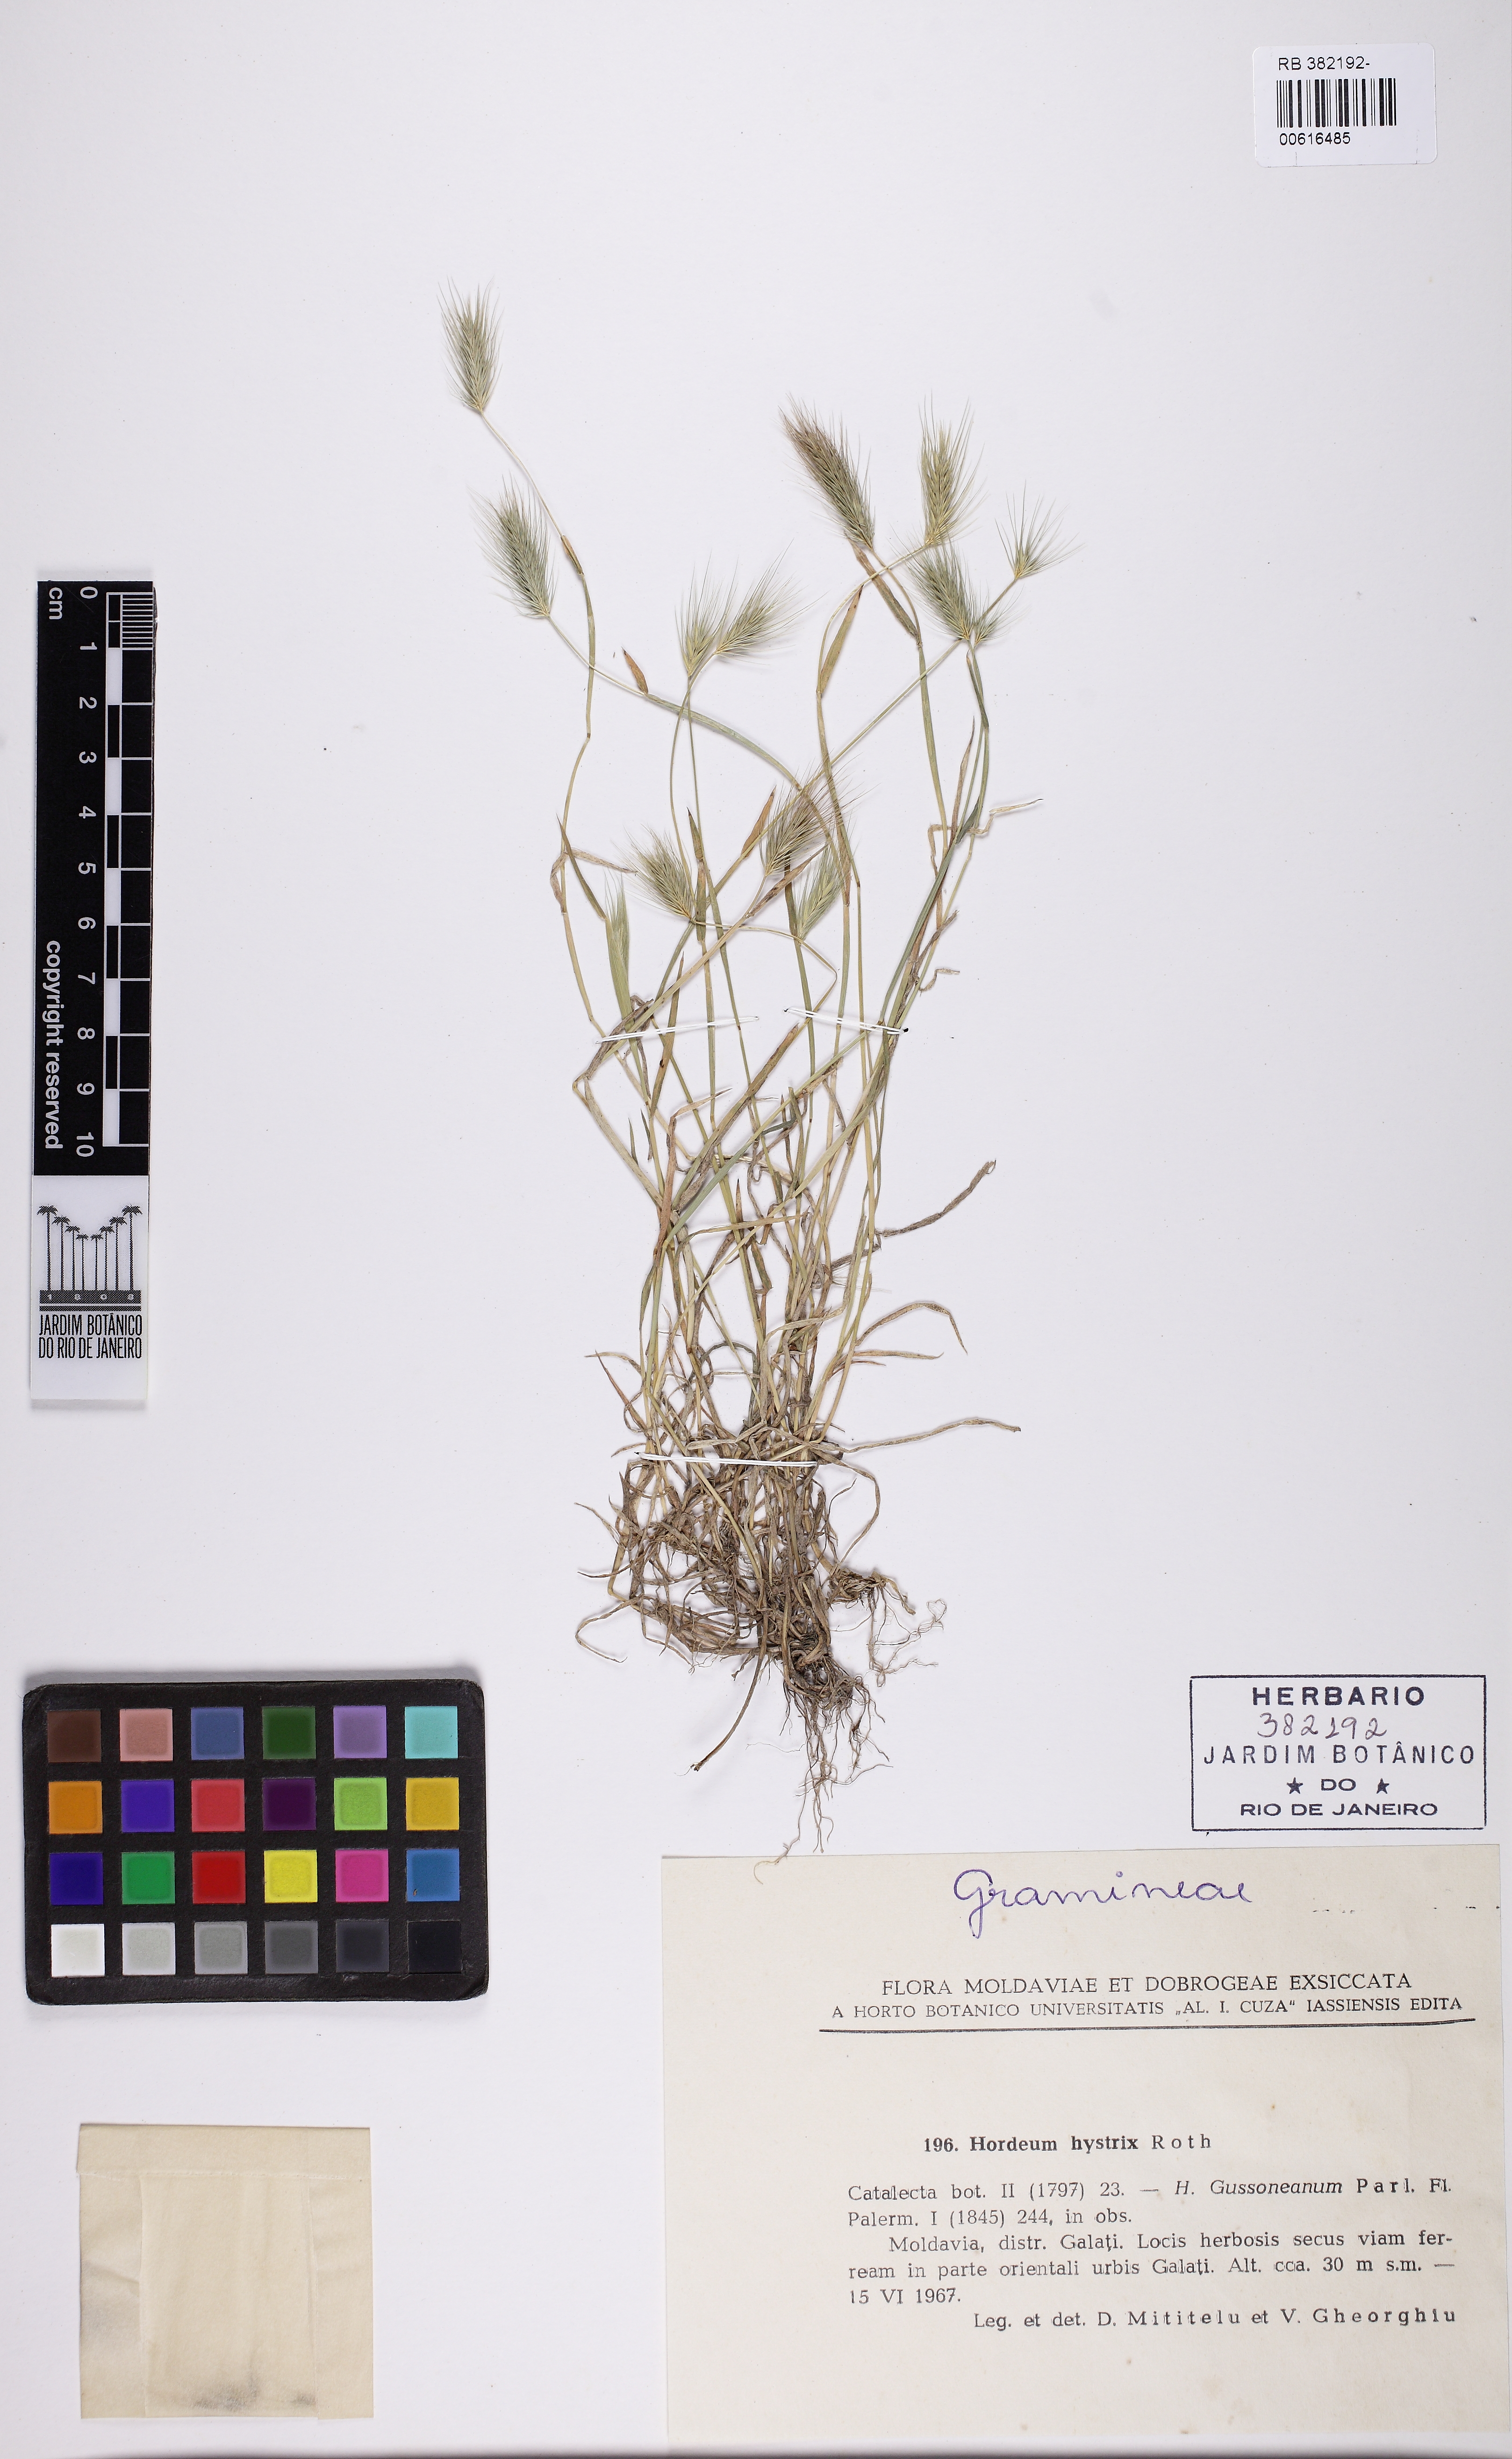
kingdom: Plantae
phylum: Tracheophyta
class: Liliopsida
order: Poales
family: Poaceae
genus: Hordeum
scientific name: Hordeum marinum
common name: Sea barley
